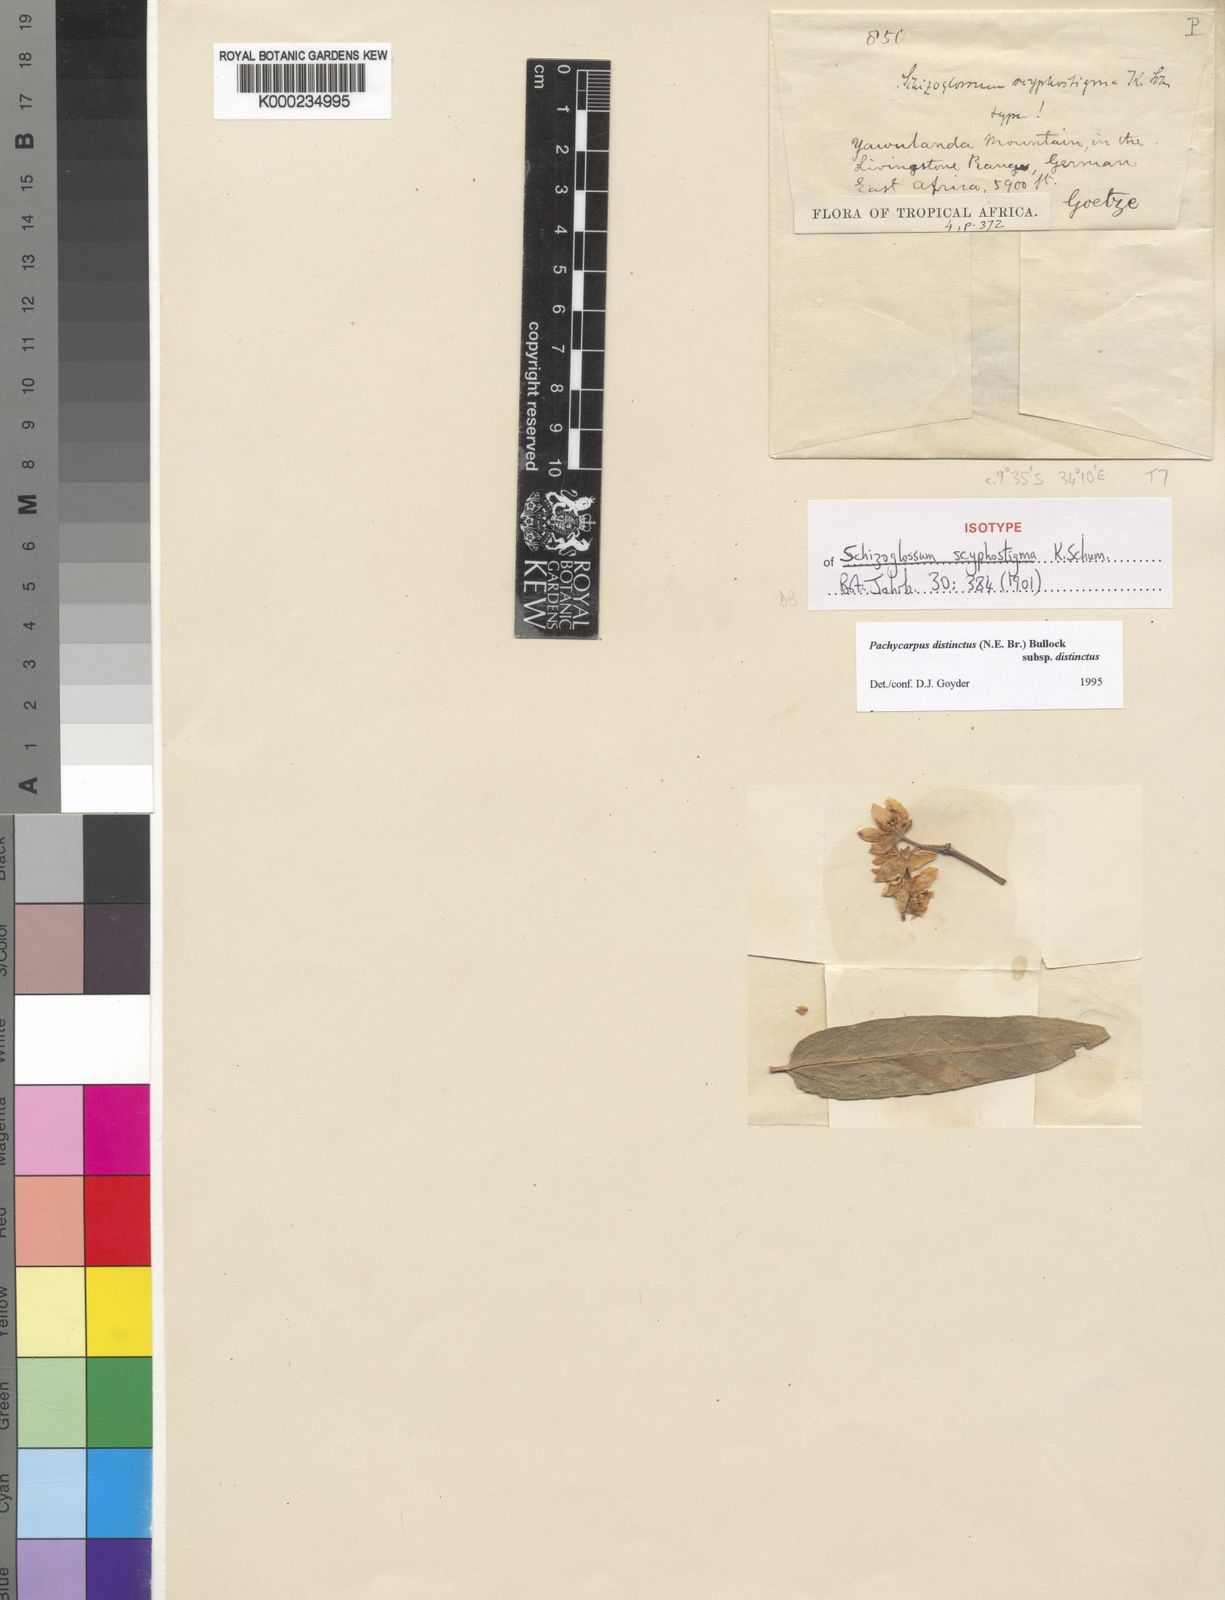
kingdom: Plantae
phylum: Tracheophyta
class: Magnoliopsida
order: Gentianales
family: Apocynaceae
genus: Pachycarpus
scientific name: Pachycarpus distinctus
